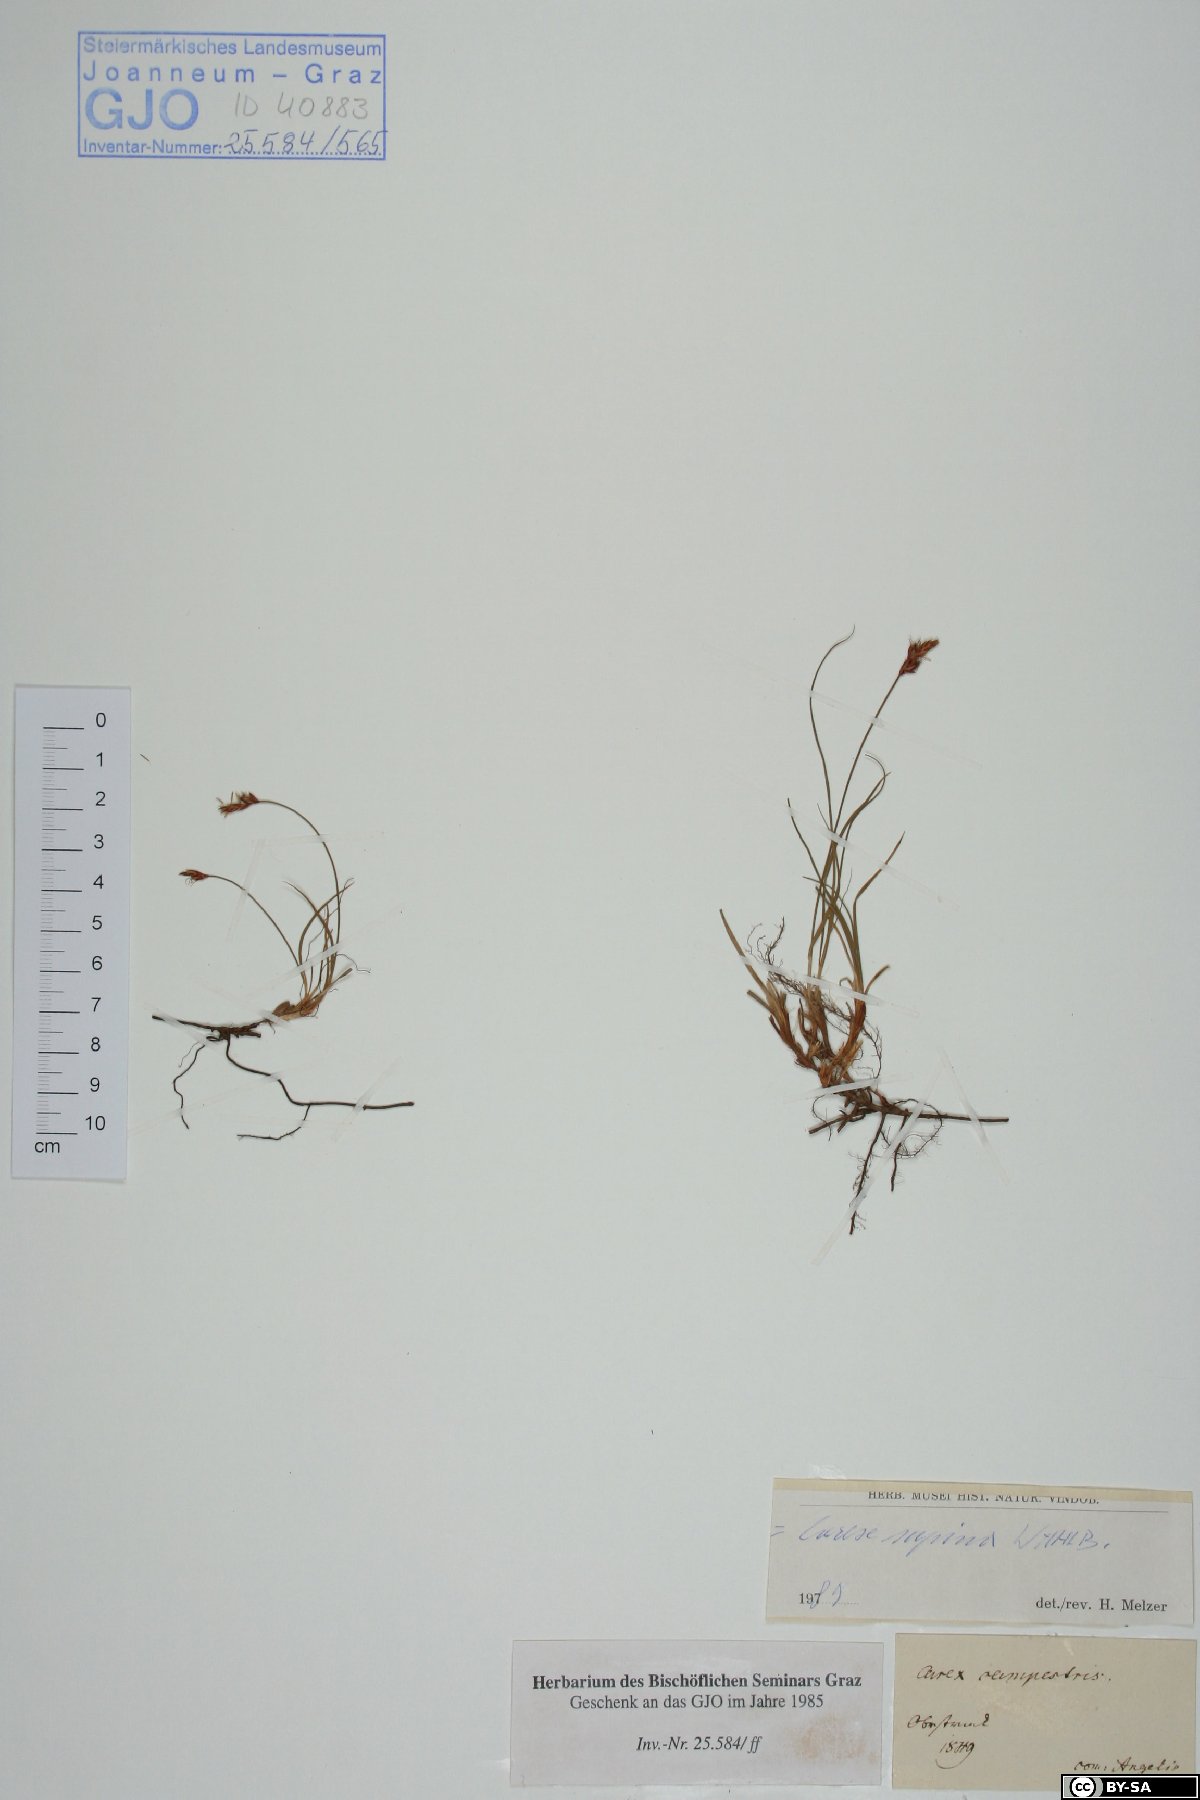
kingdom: Plantae
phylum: Tracheophyta
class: Liliopsida
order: Poales
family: Cyperaceae
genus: Carex
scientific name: Carex supina
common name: Lying-back sedge
